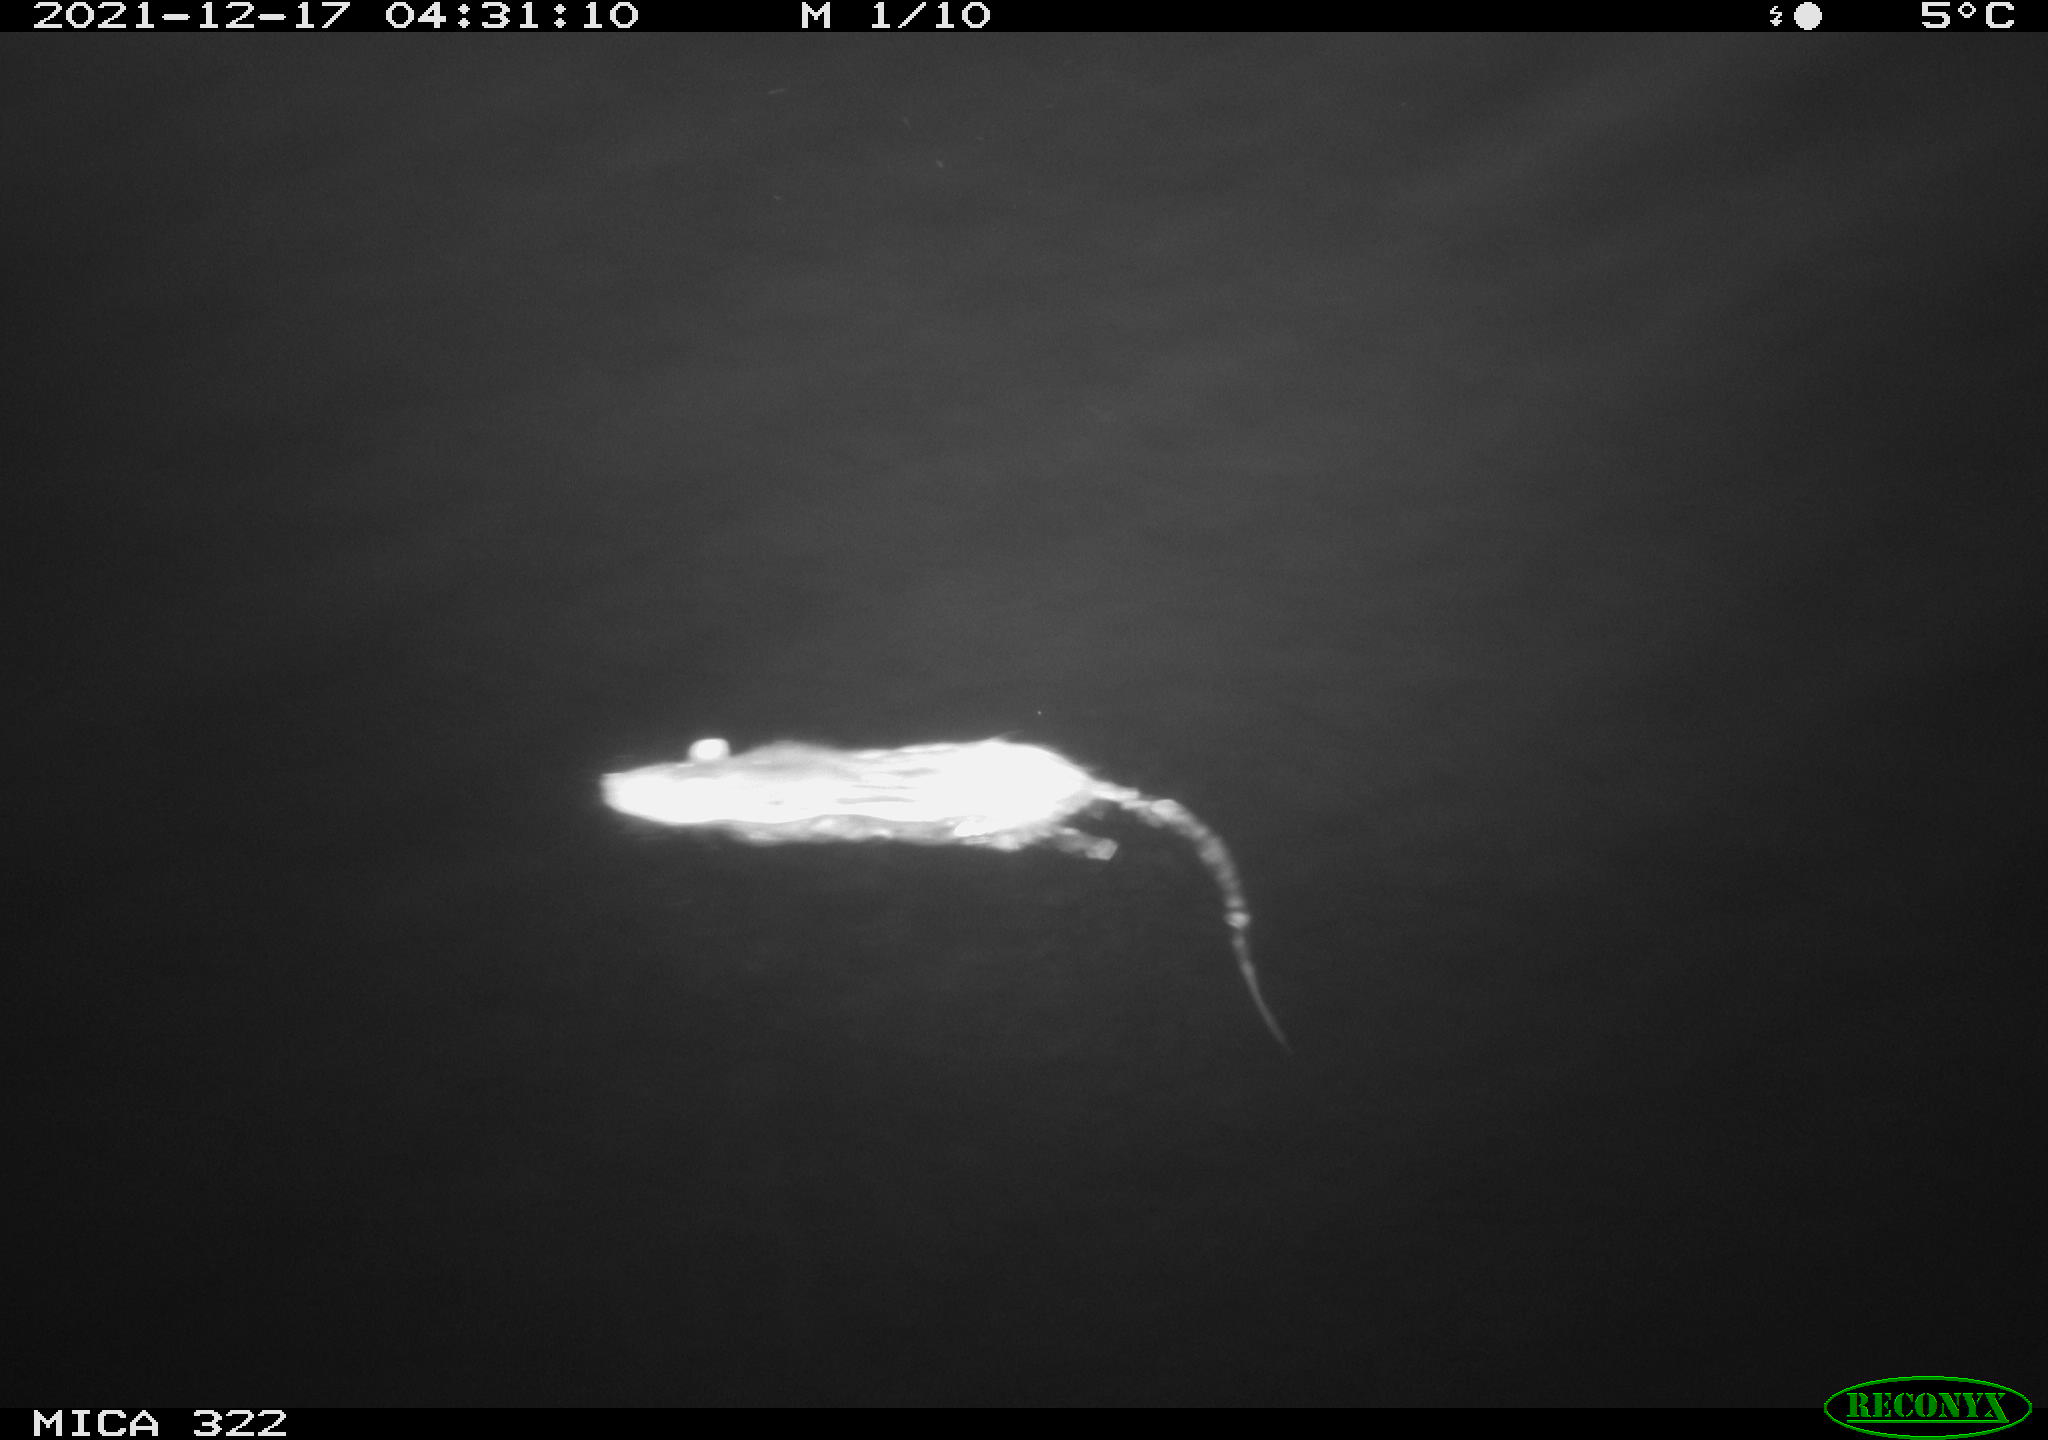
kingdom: Animalia
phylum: Chordata
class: Mammalia
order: Rodentia
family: Muridae
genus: Rattus
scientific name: Rattus norvegicus
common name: Brown rat
